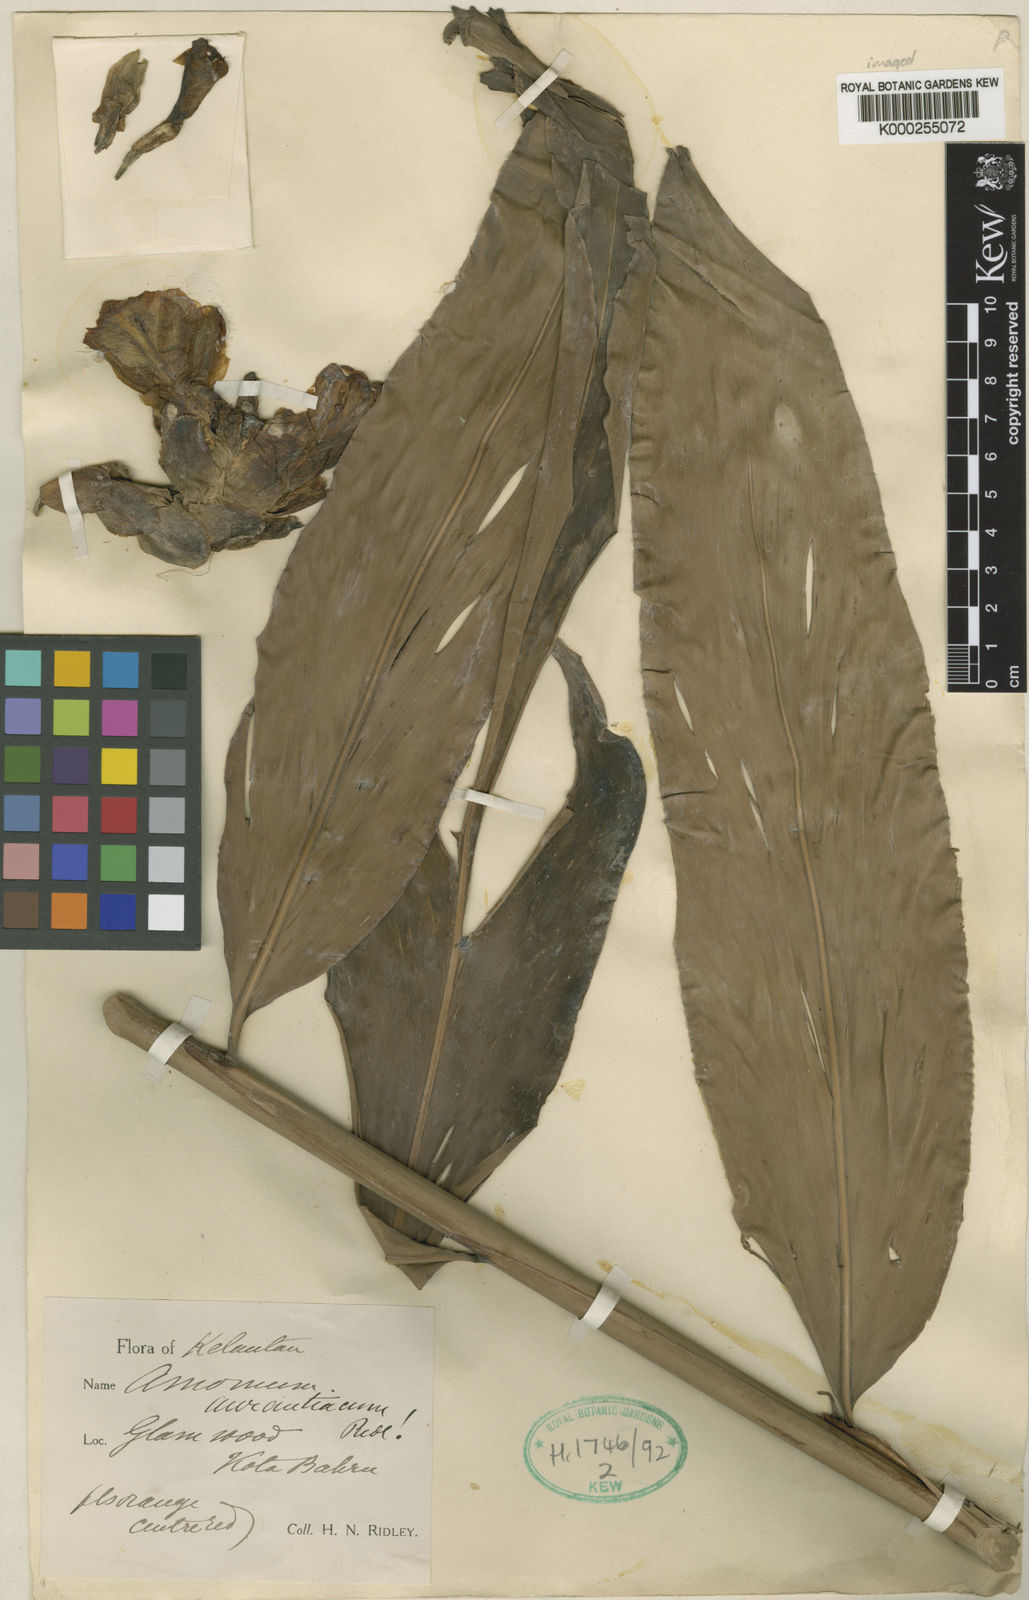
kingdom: Plantae
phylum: Tracheophyta
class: Liliopsida
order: Zingiberales
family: Zingiberaceae
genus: Meistera
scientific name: Meistera aculeata
